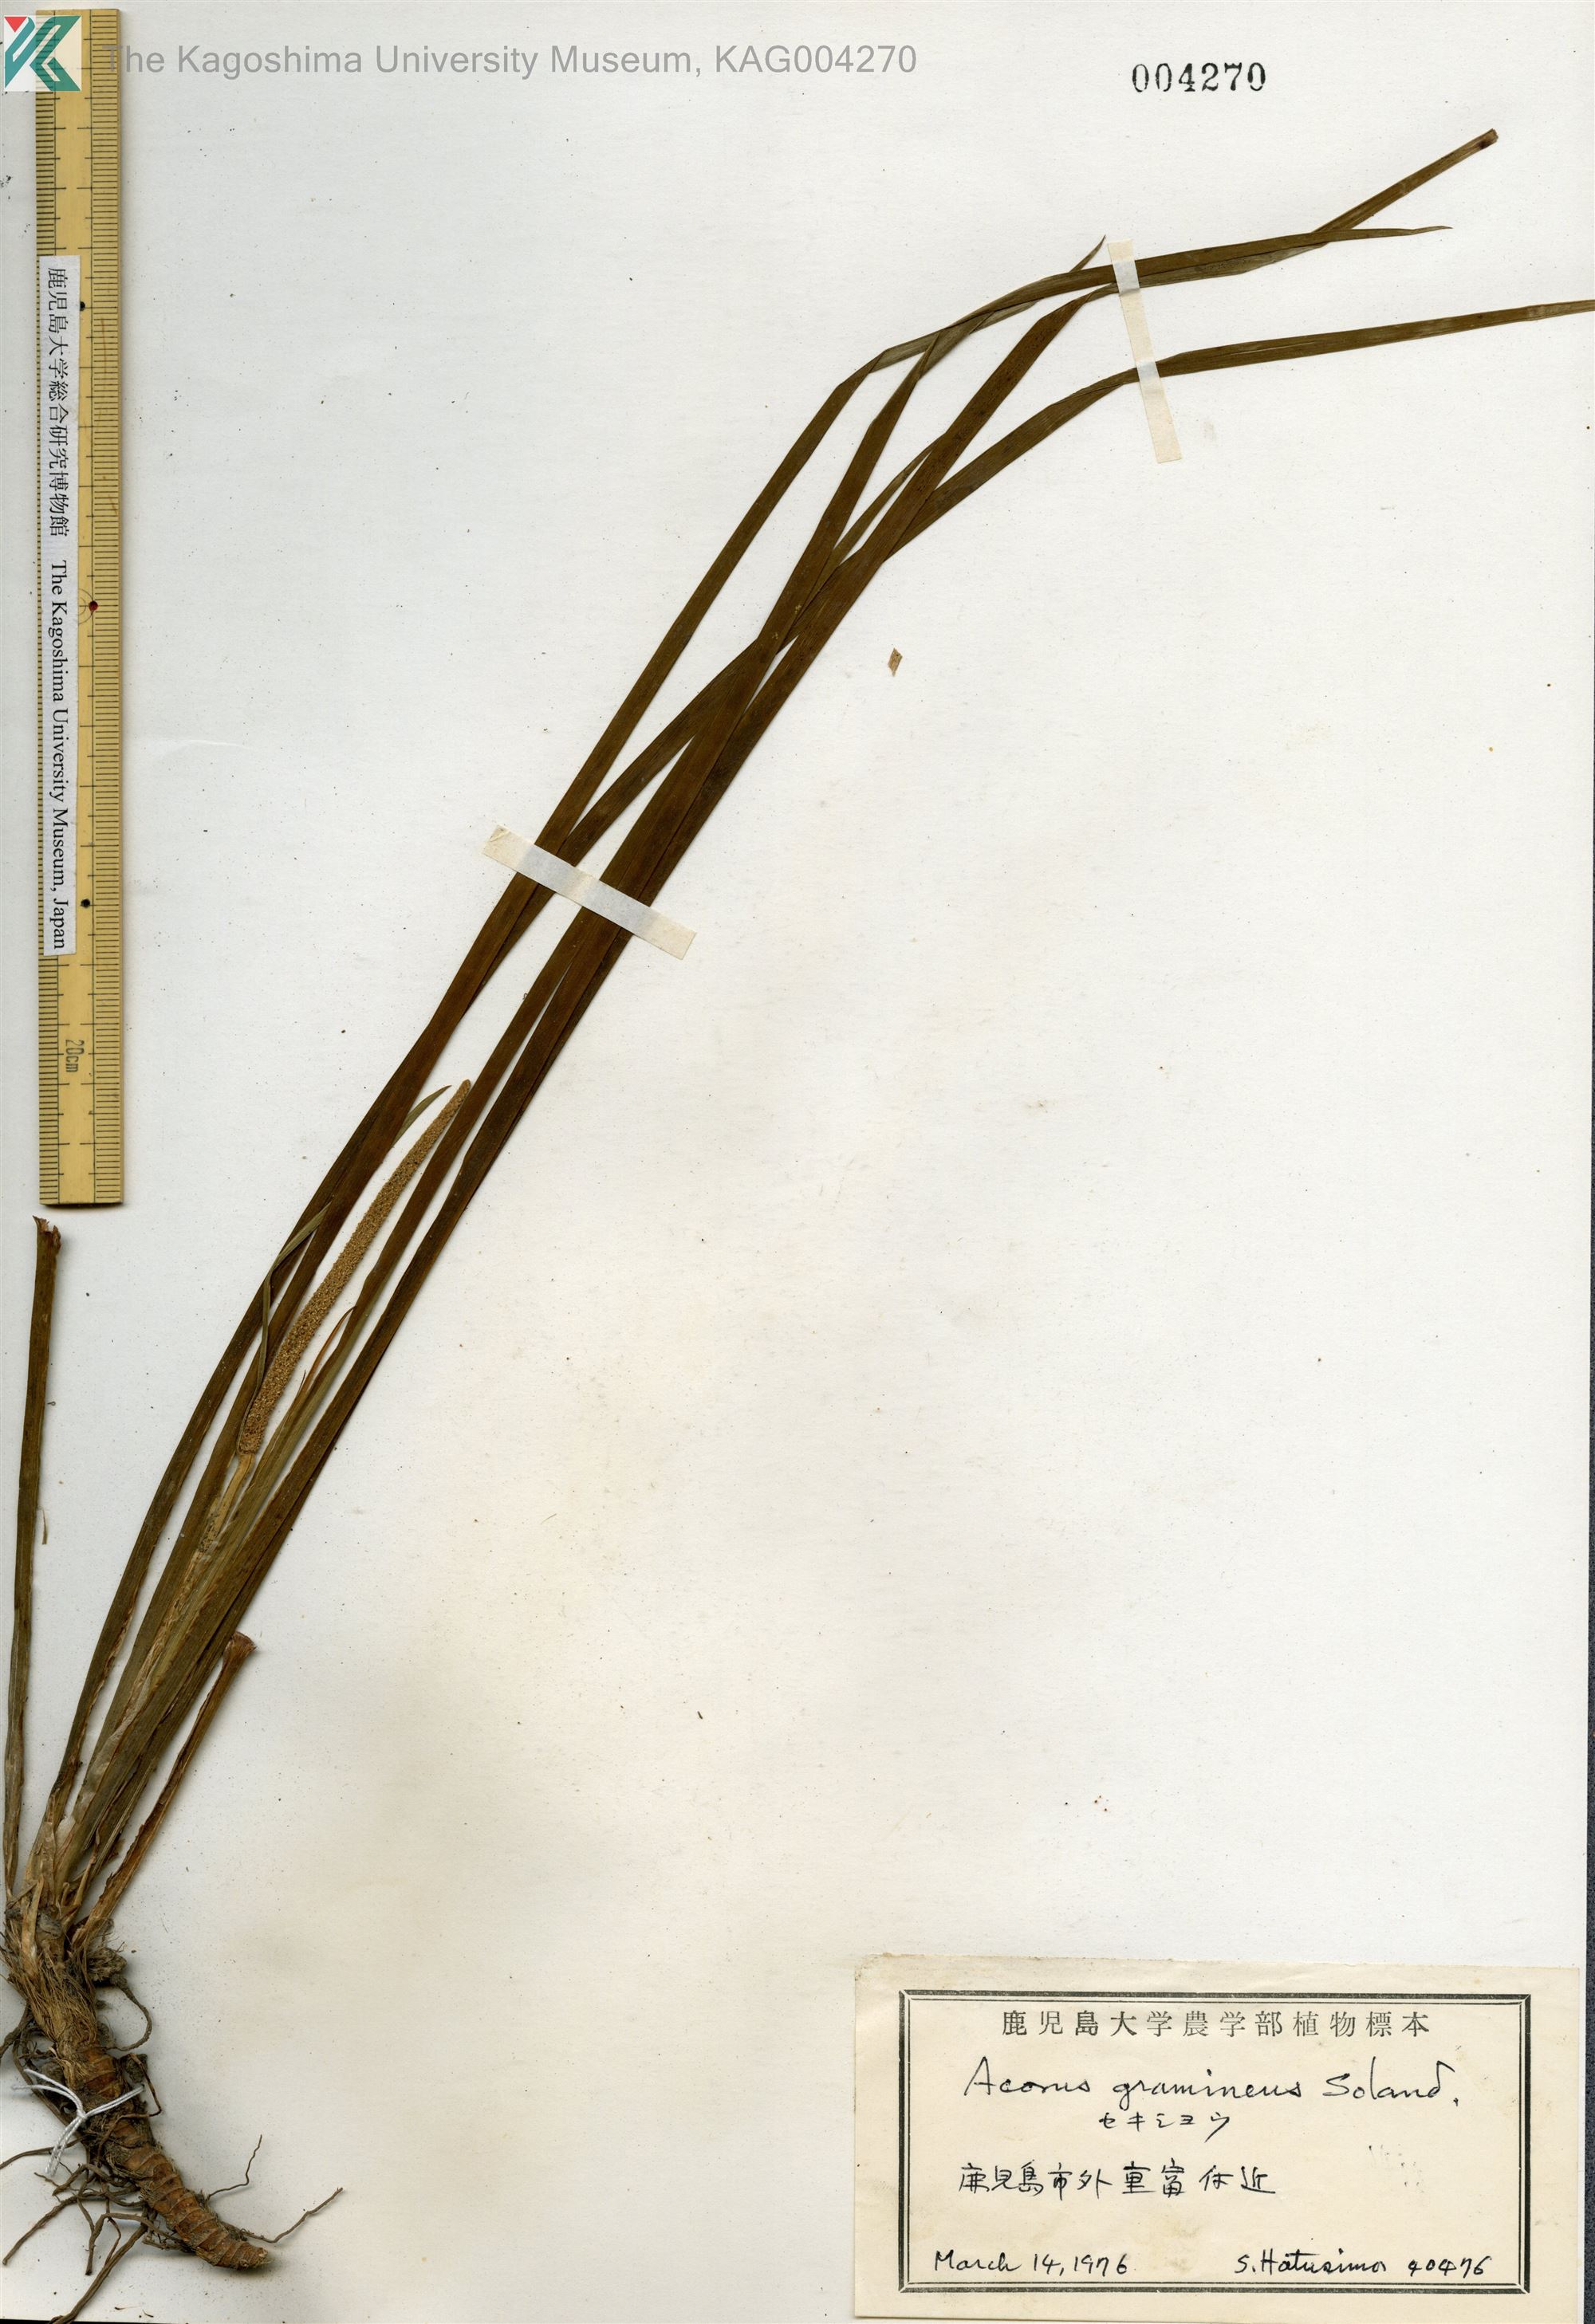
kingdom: Plantae
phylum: Tracheophyta
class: Liliopsida
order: Acorales
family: Acoraceae
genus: Acorus
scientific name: Acorus gramineus
